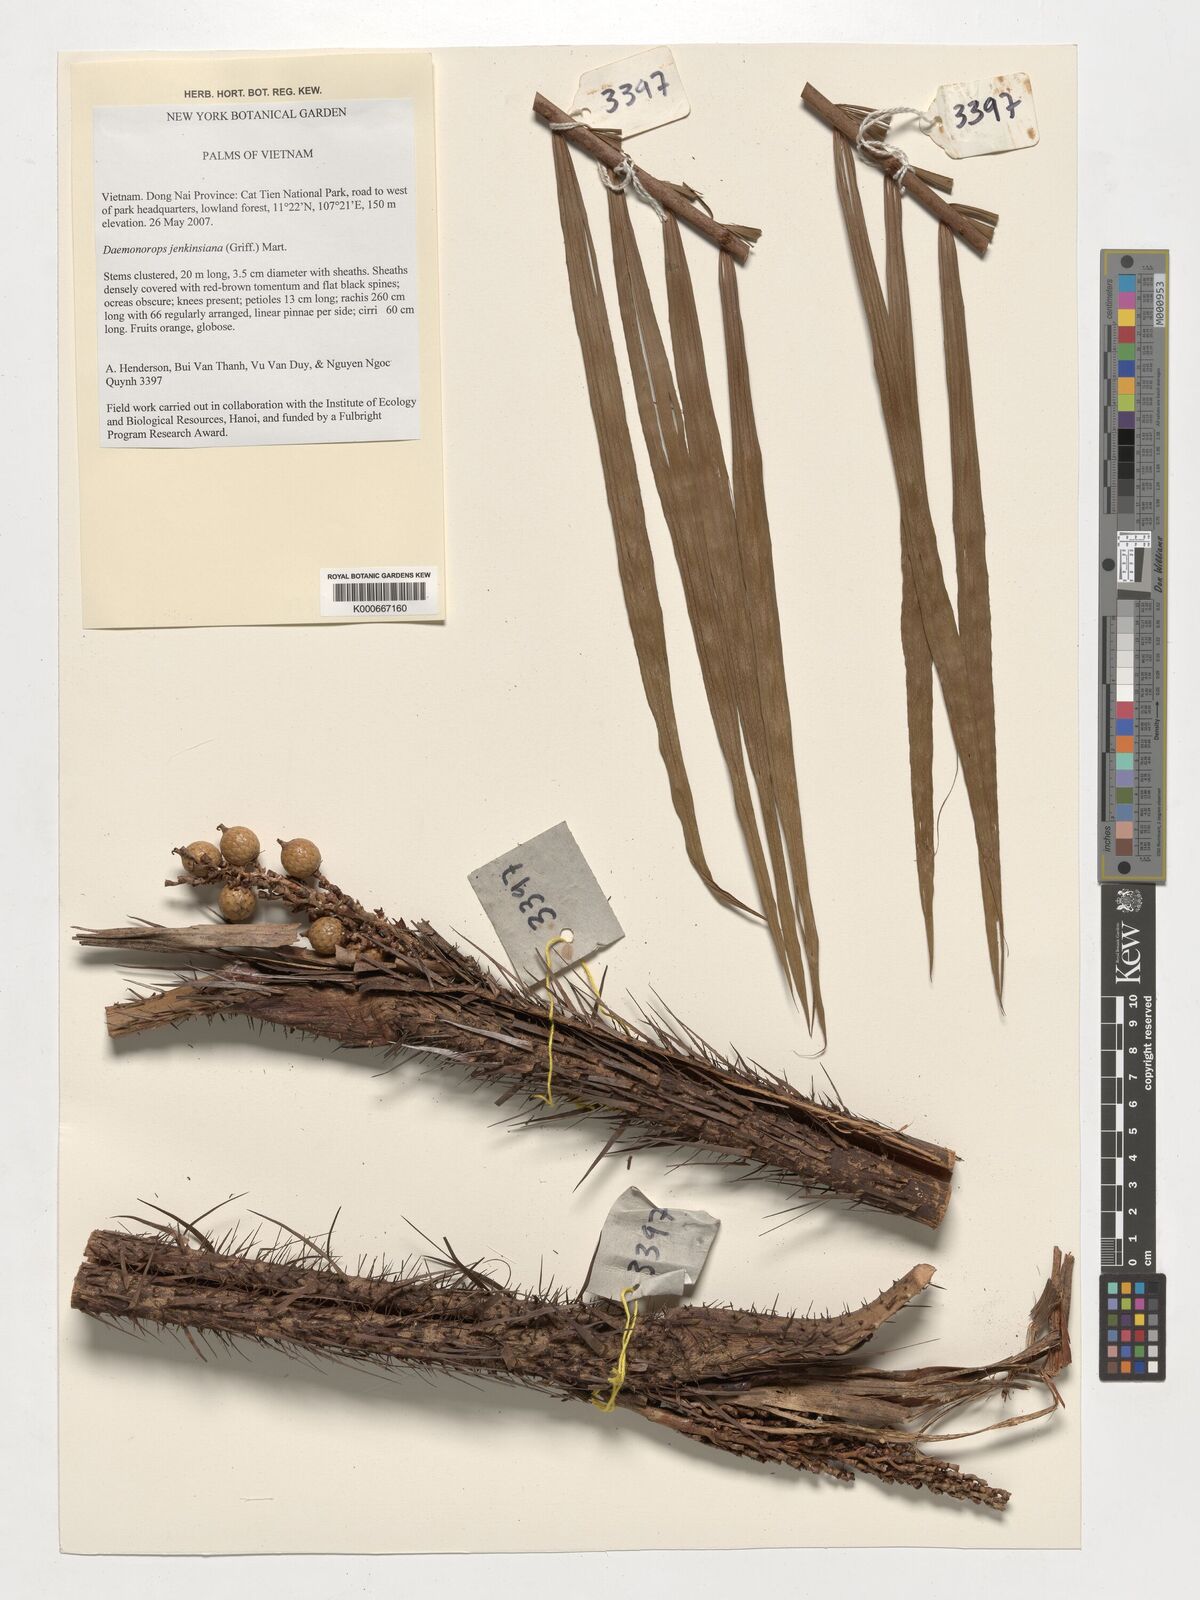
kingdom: Plantae
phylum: Tracheophyta
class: Liliopsida
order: Arecales
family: Arecaceae
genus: Calamus
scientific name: Calamus melanochaetes
